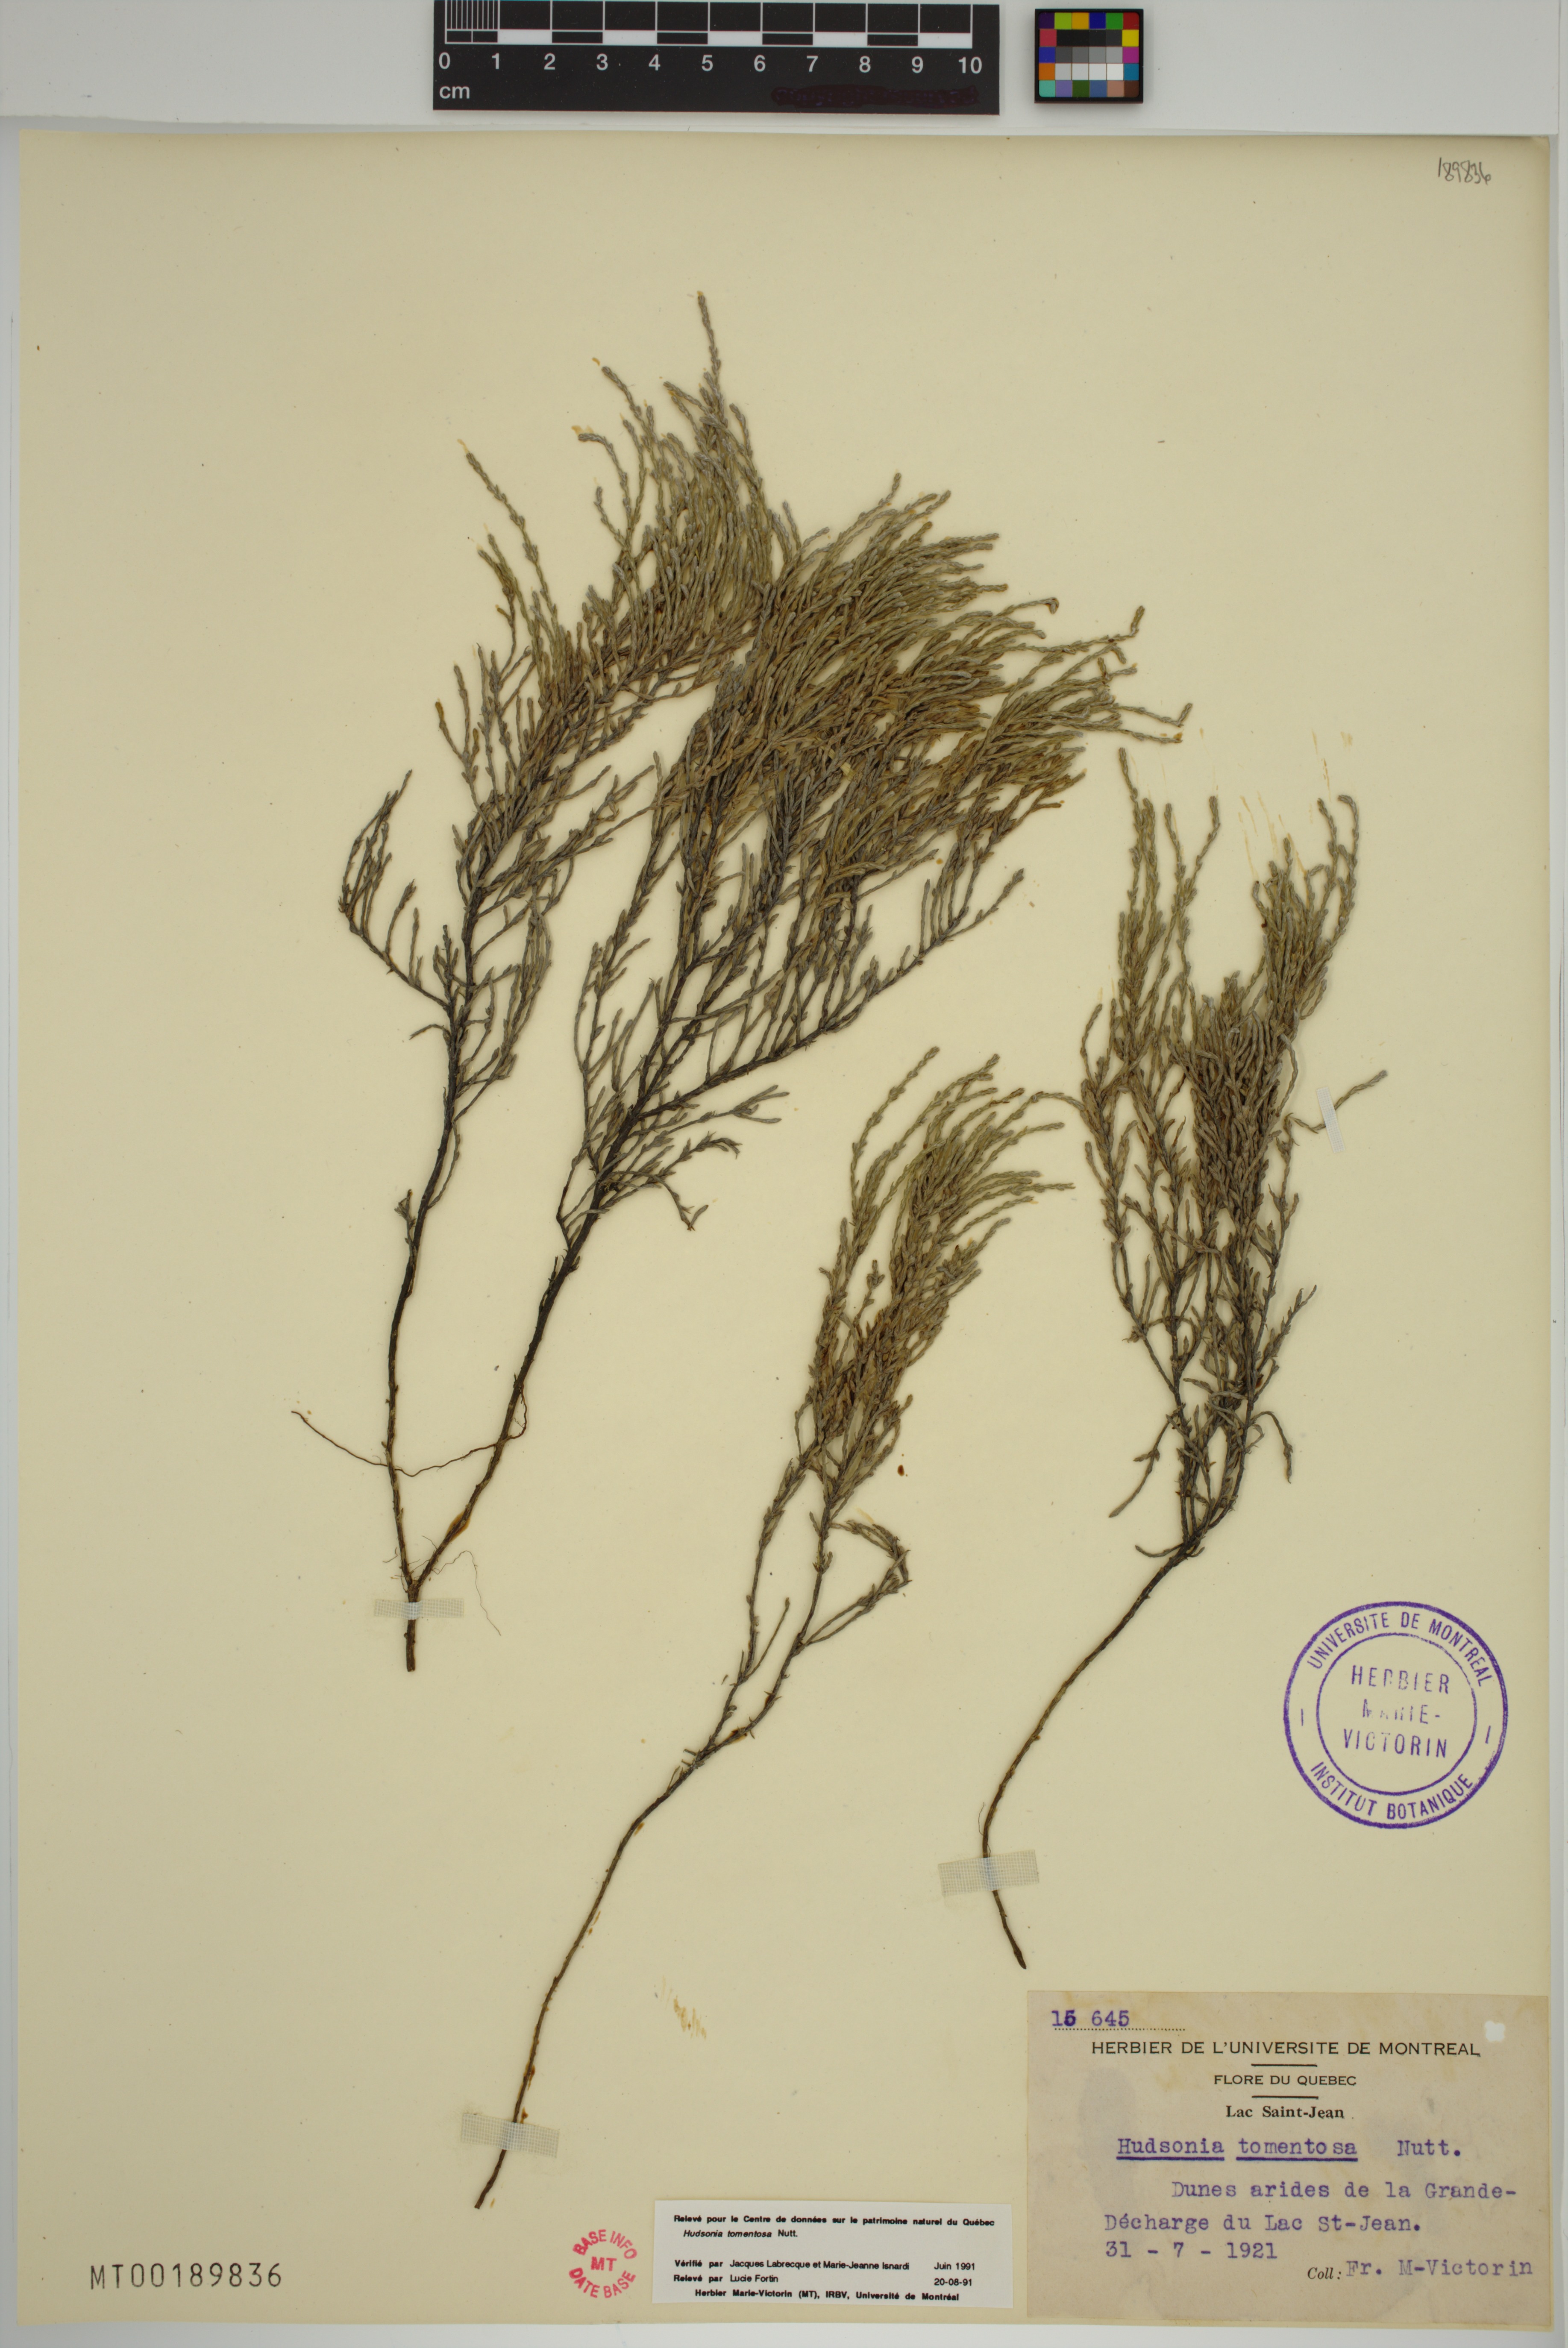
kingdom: Plantae
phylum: Tracheophyta
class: Magnoliopsida
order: Malvales
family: Cistaceae
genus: Hudsonia
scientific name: Hudsonia tomentosa
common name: Beach-heath
